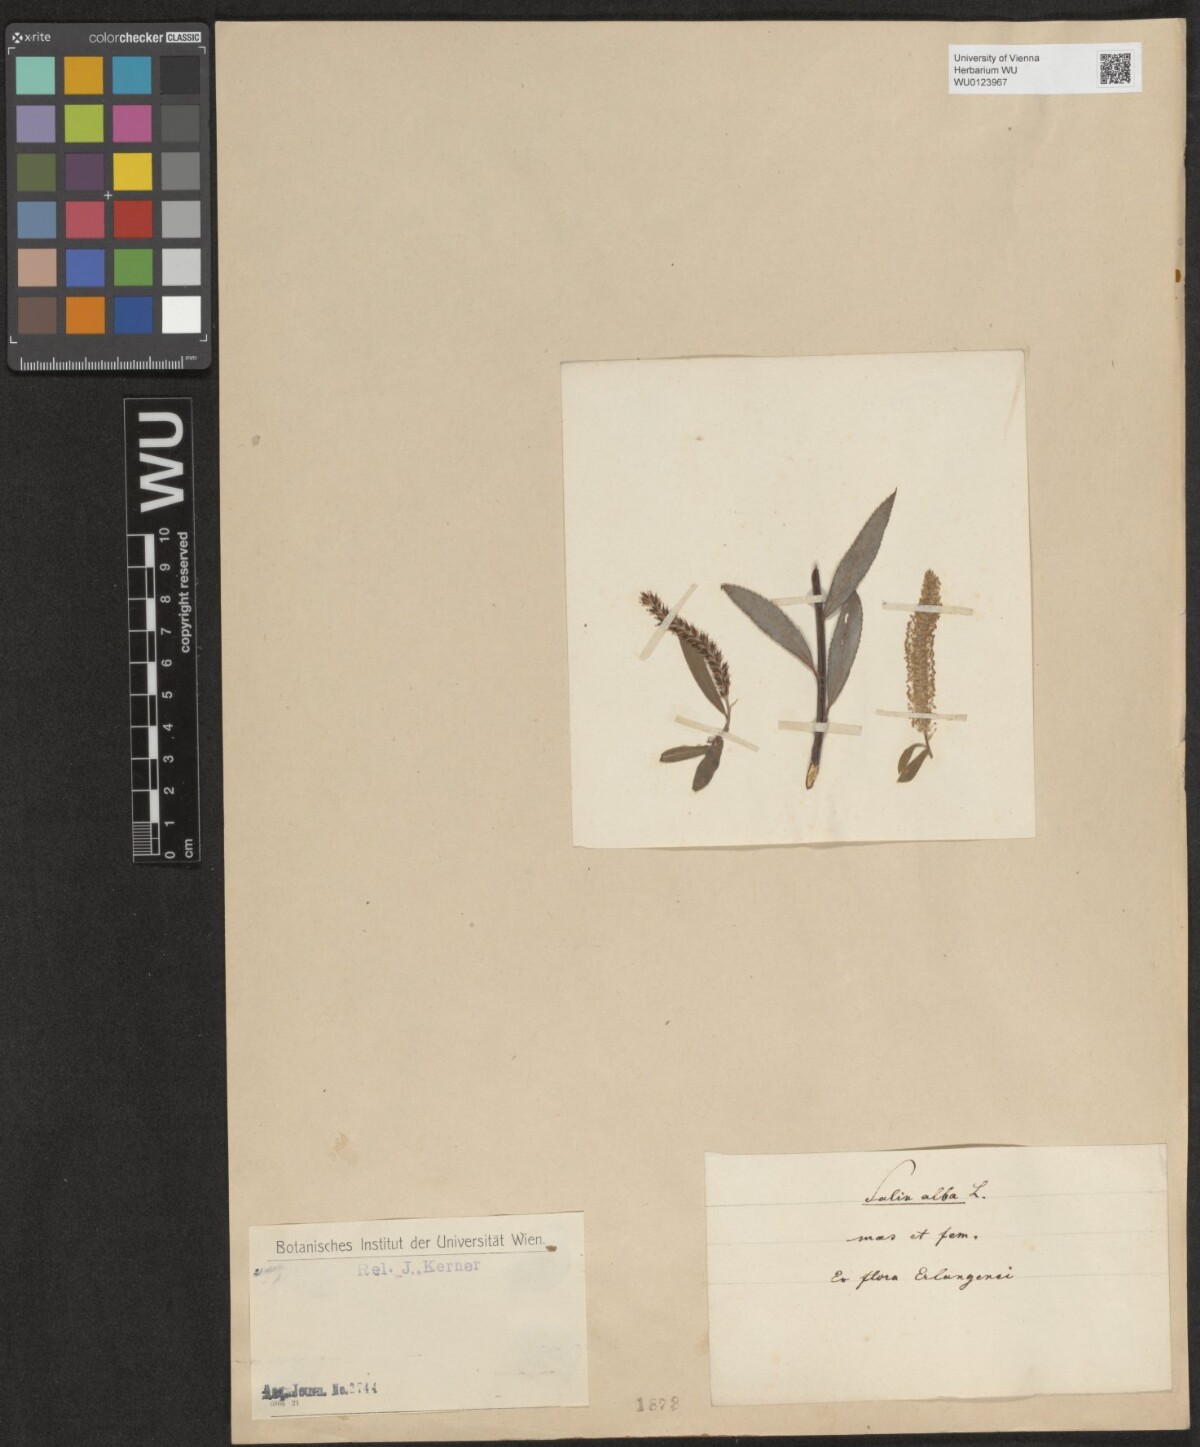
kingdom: Plantae
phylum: Tracheophyta
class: Magnoliopsida
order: Malpighiales
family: Salicaceae
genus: Salix
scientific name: Salix alba
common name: White willow
